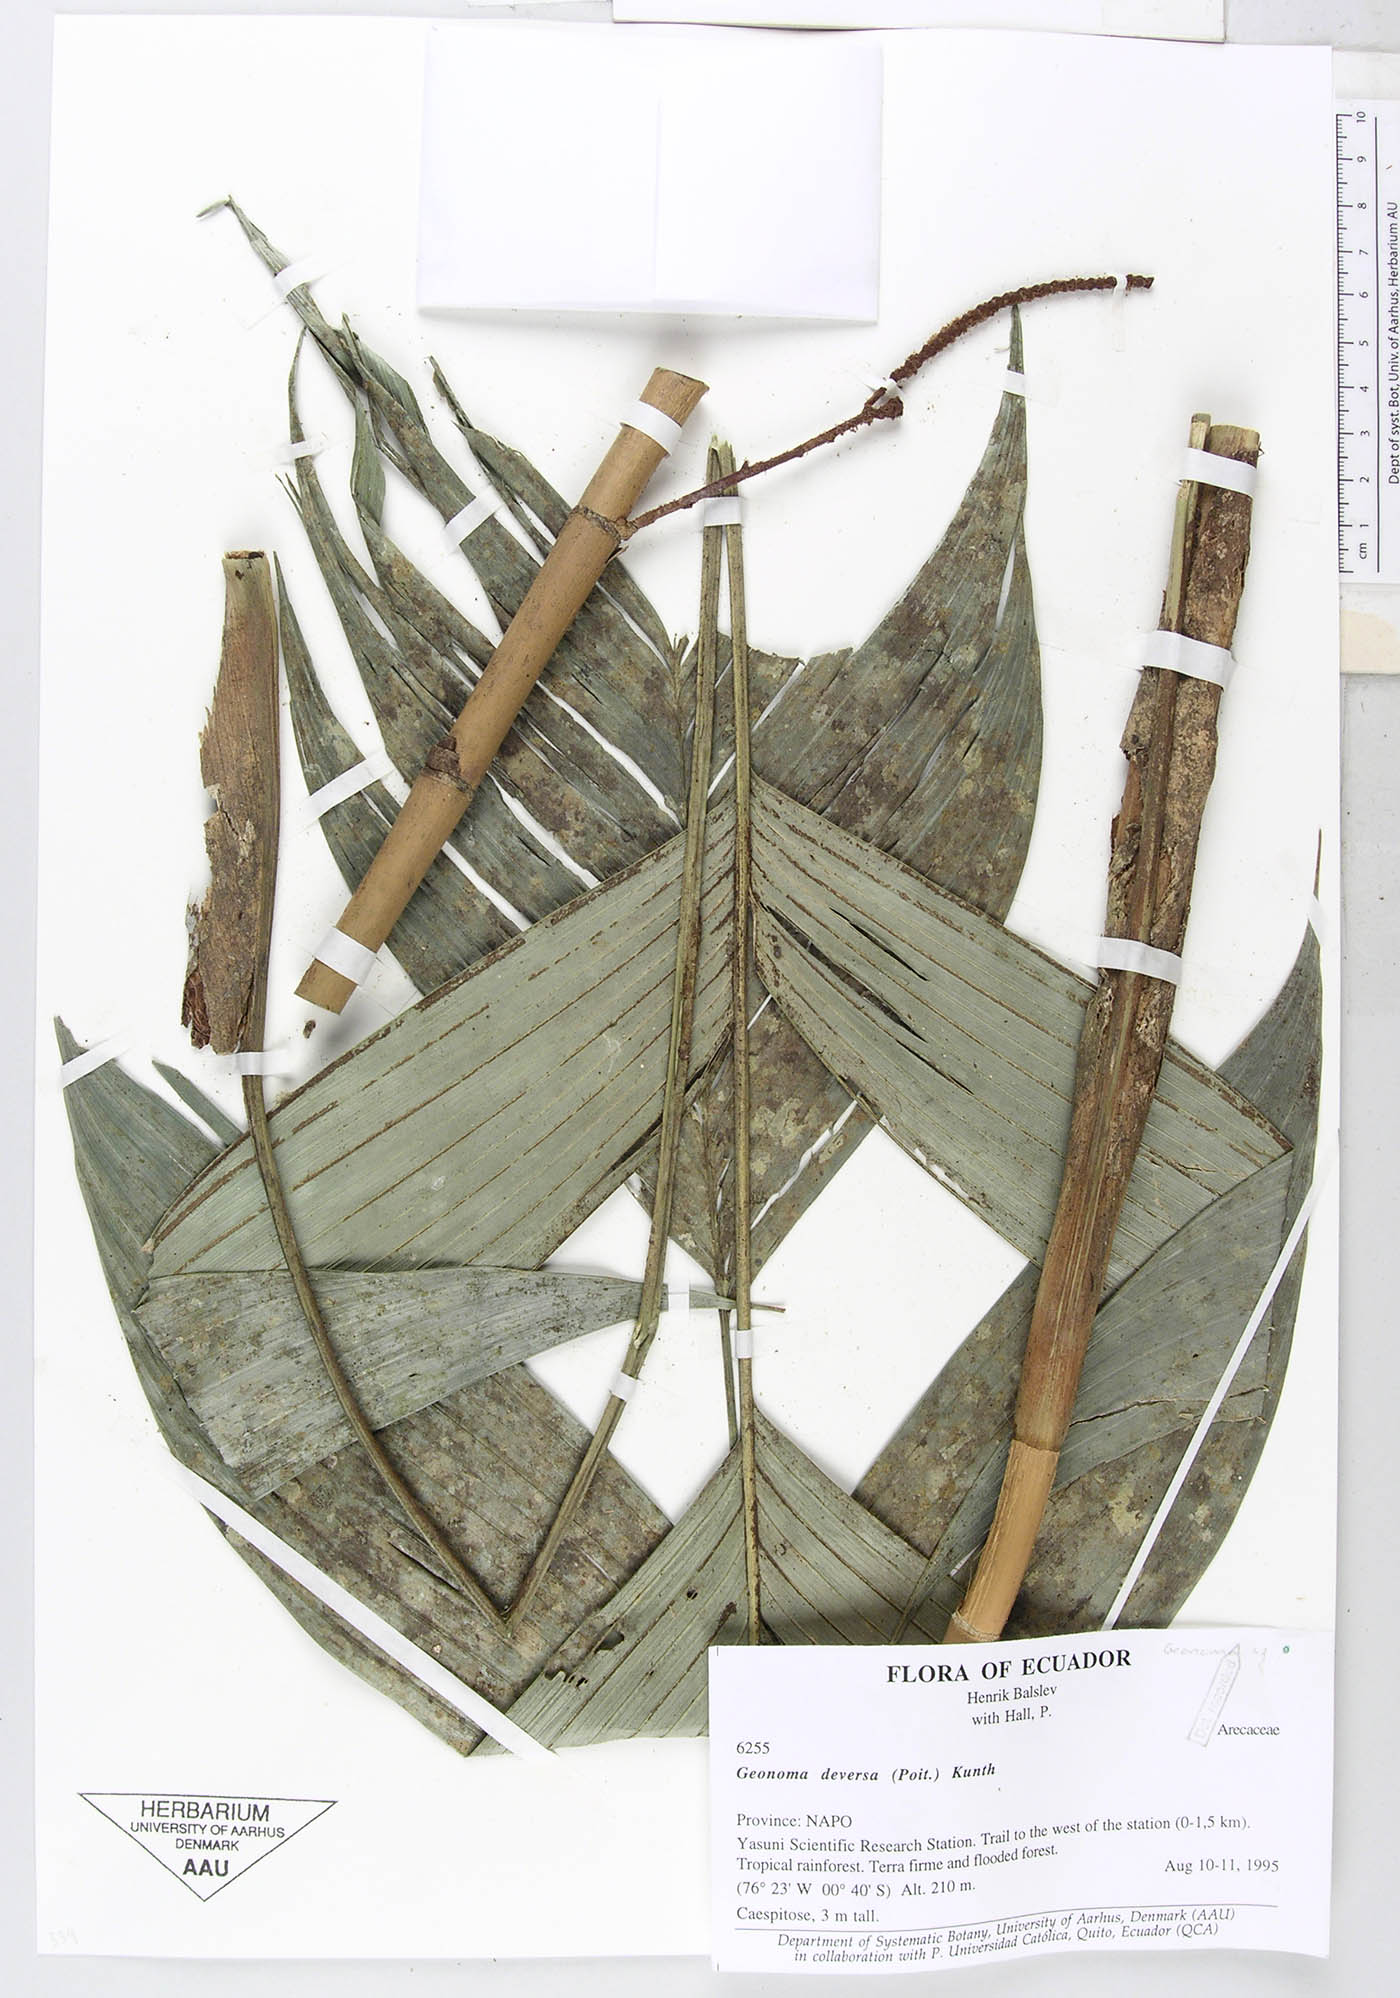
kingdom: Plantae
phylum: Tracheophyta
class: Liliopsida
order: Arecales
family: Arecaceae
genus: Geonoma
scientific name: Geonoma stricta
